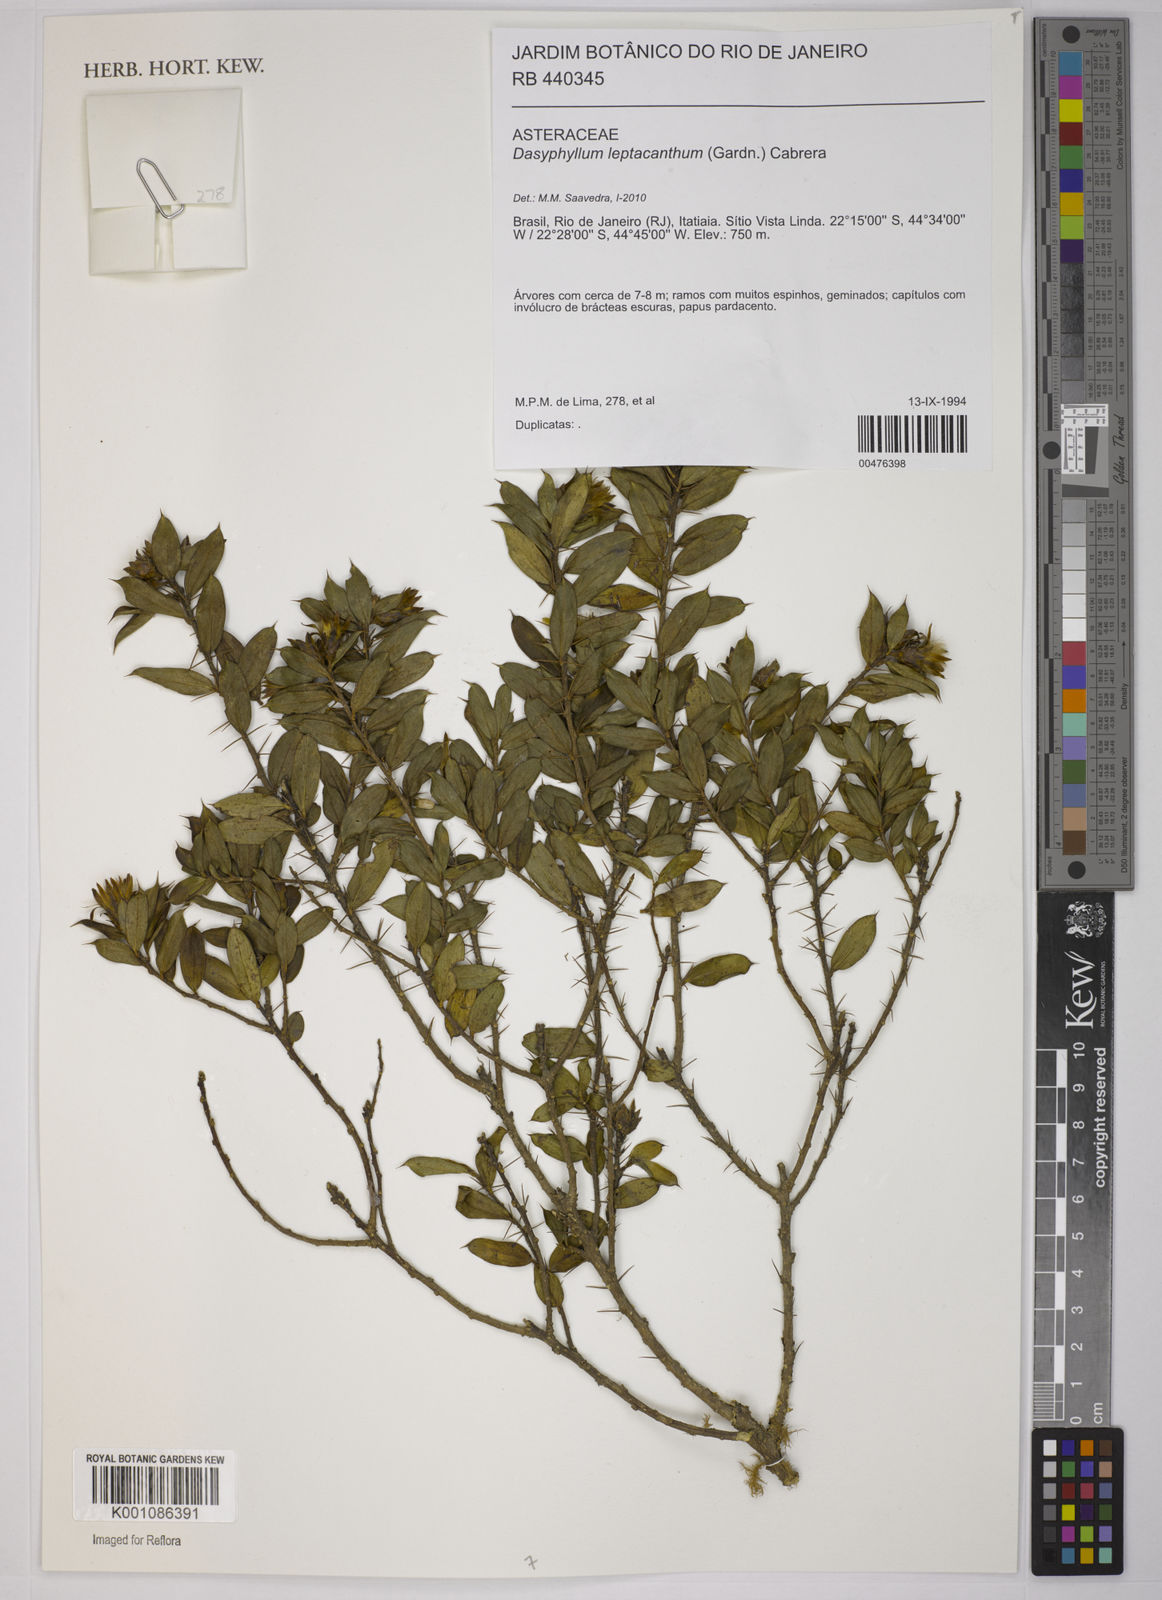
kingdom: Plantae
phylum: Tracheophyta
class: Magnoliopsida
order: Asterales
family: Asteraceae
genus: Dasyphyllum
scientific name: Dasyphyllum leptacanthum
